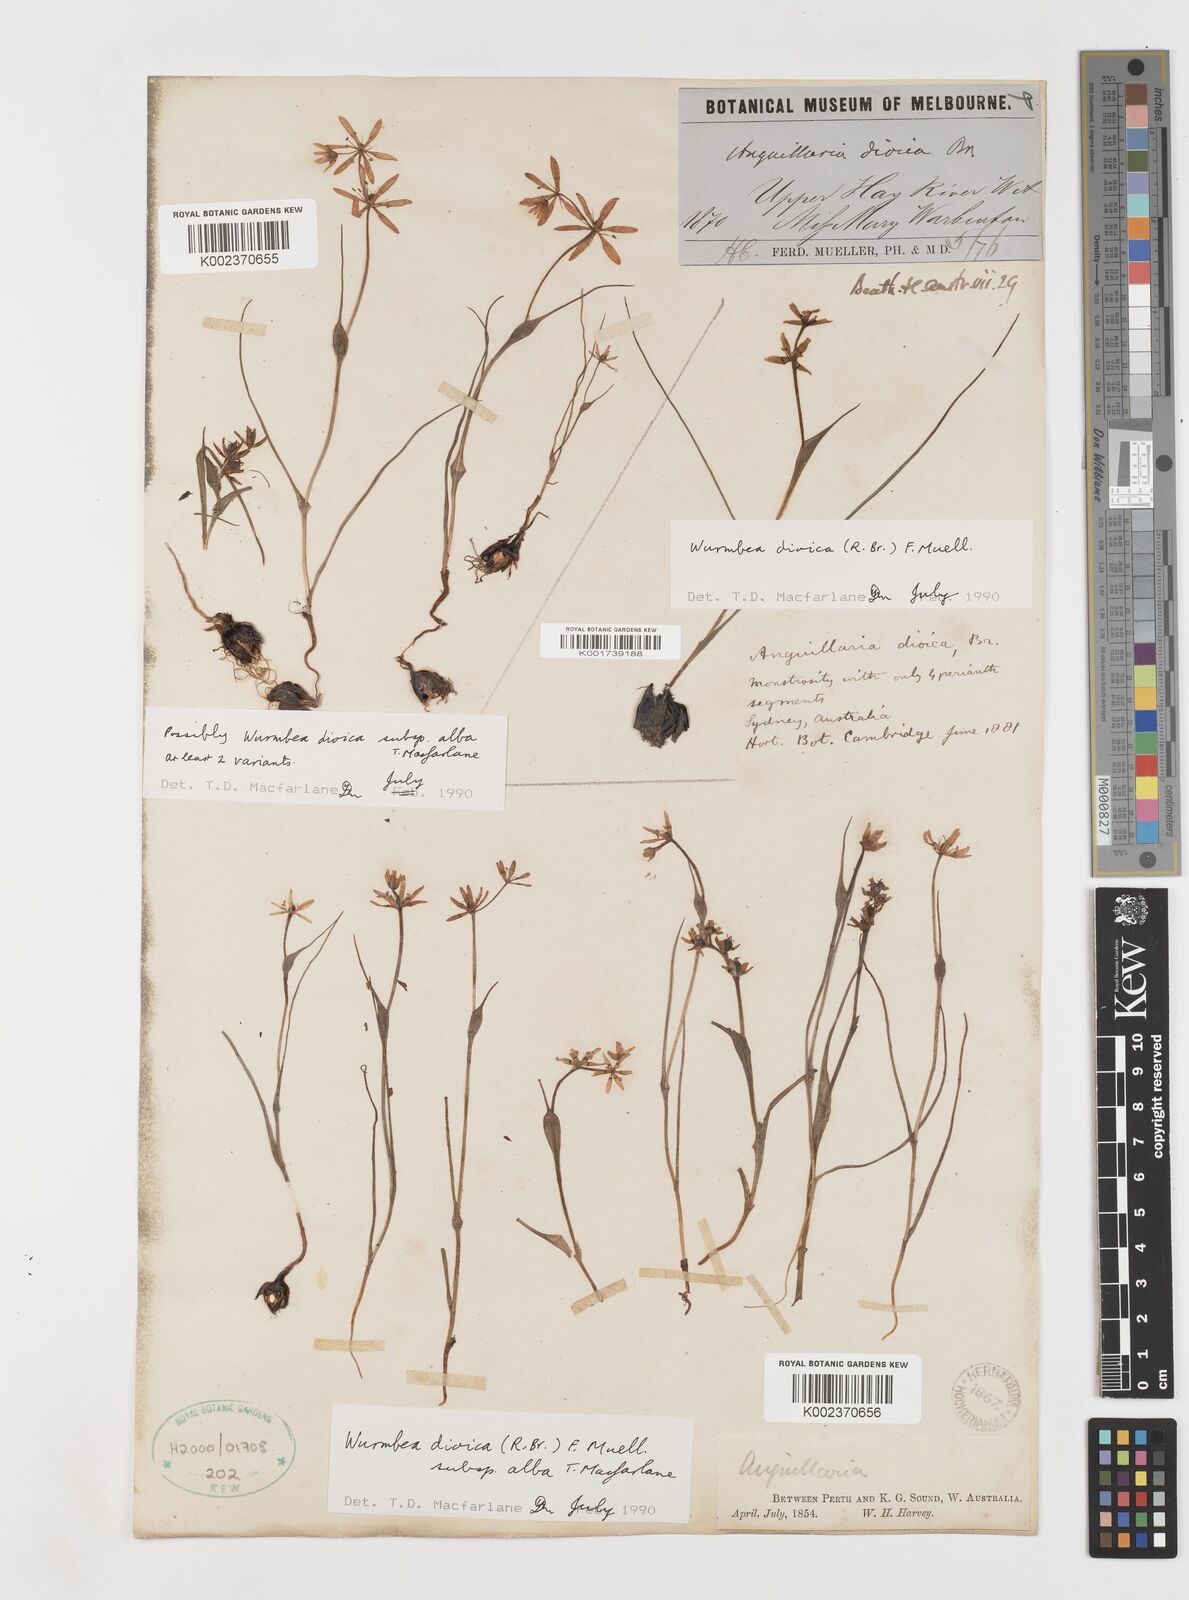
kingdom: Plantae
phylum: Tracheophyta
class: Liliopsida
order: Liliales
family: Colchicaceae
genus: Wurmbea
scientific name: Wurmbea dioica
